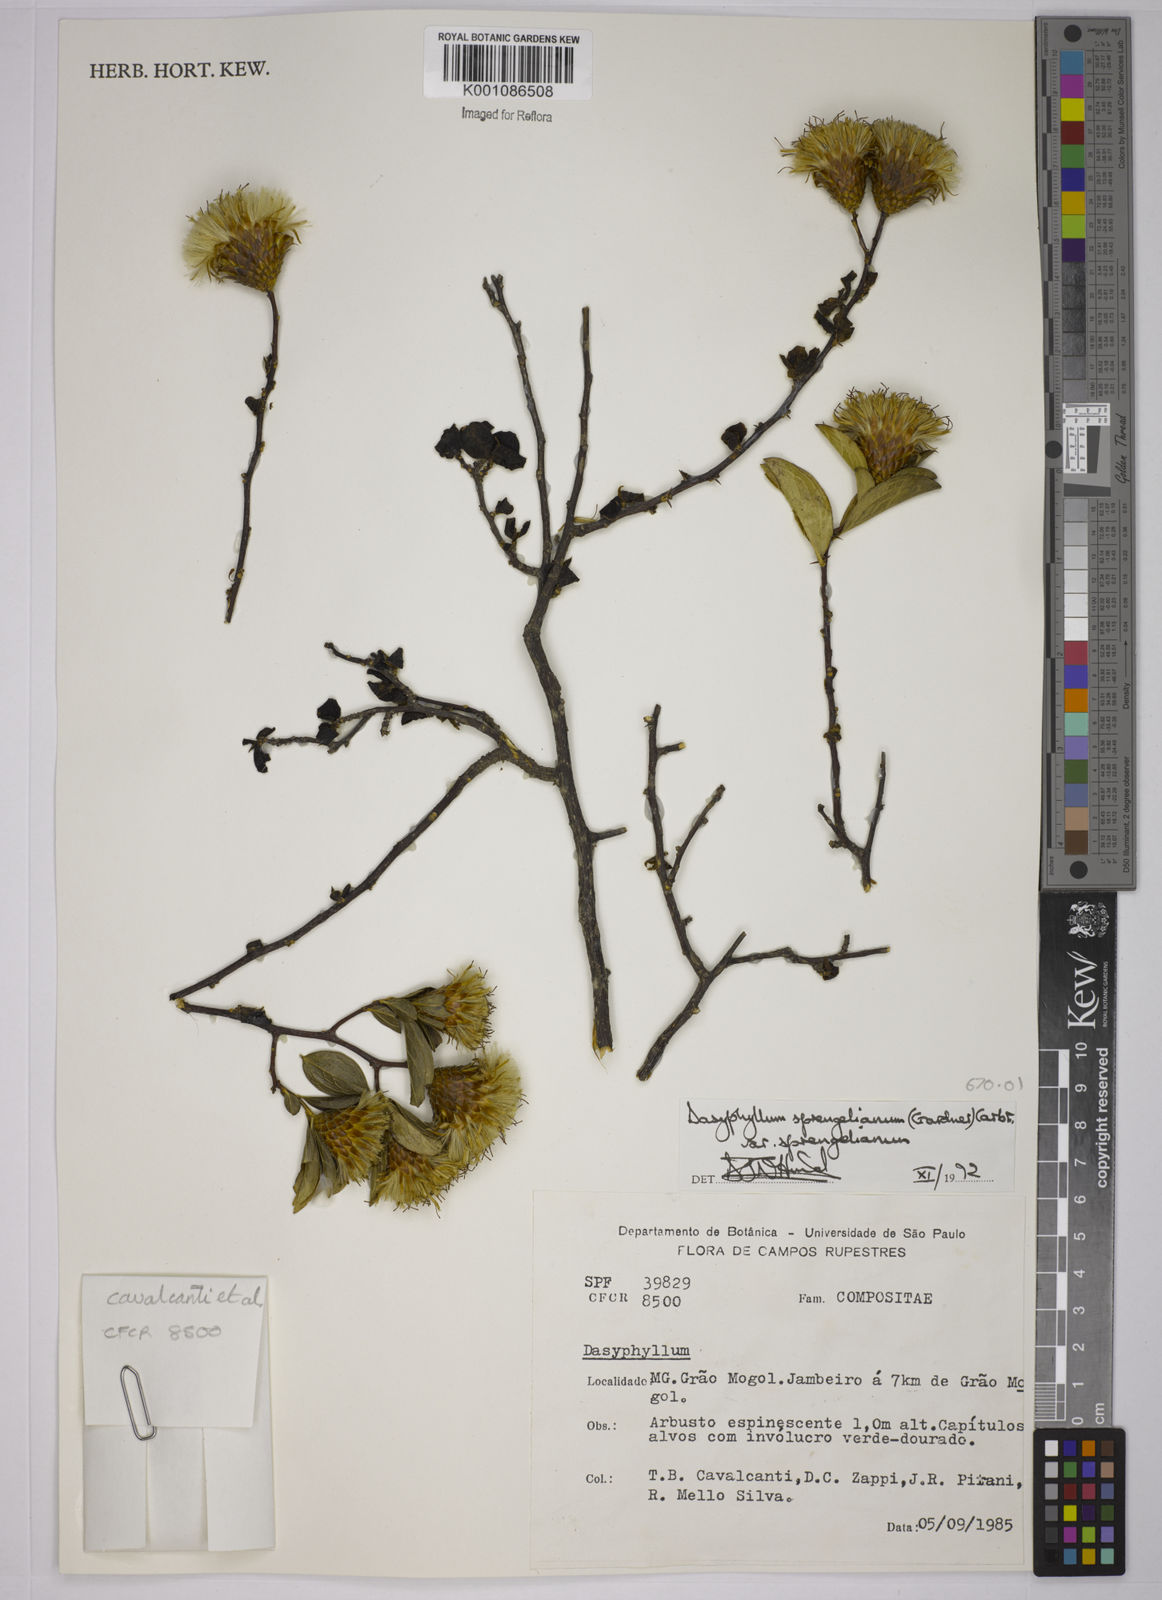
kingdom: Plantae
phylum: Tracheophyta
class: Magnoliopsida
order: Asterales
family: Asteraceae
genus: Dasyphyllum
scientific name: Dasyphyllum sprengelianum
